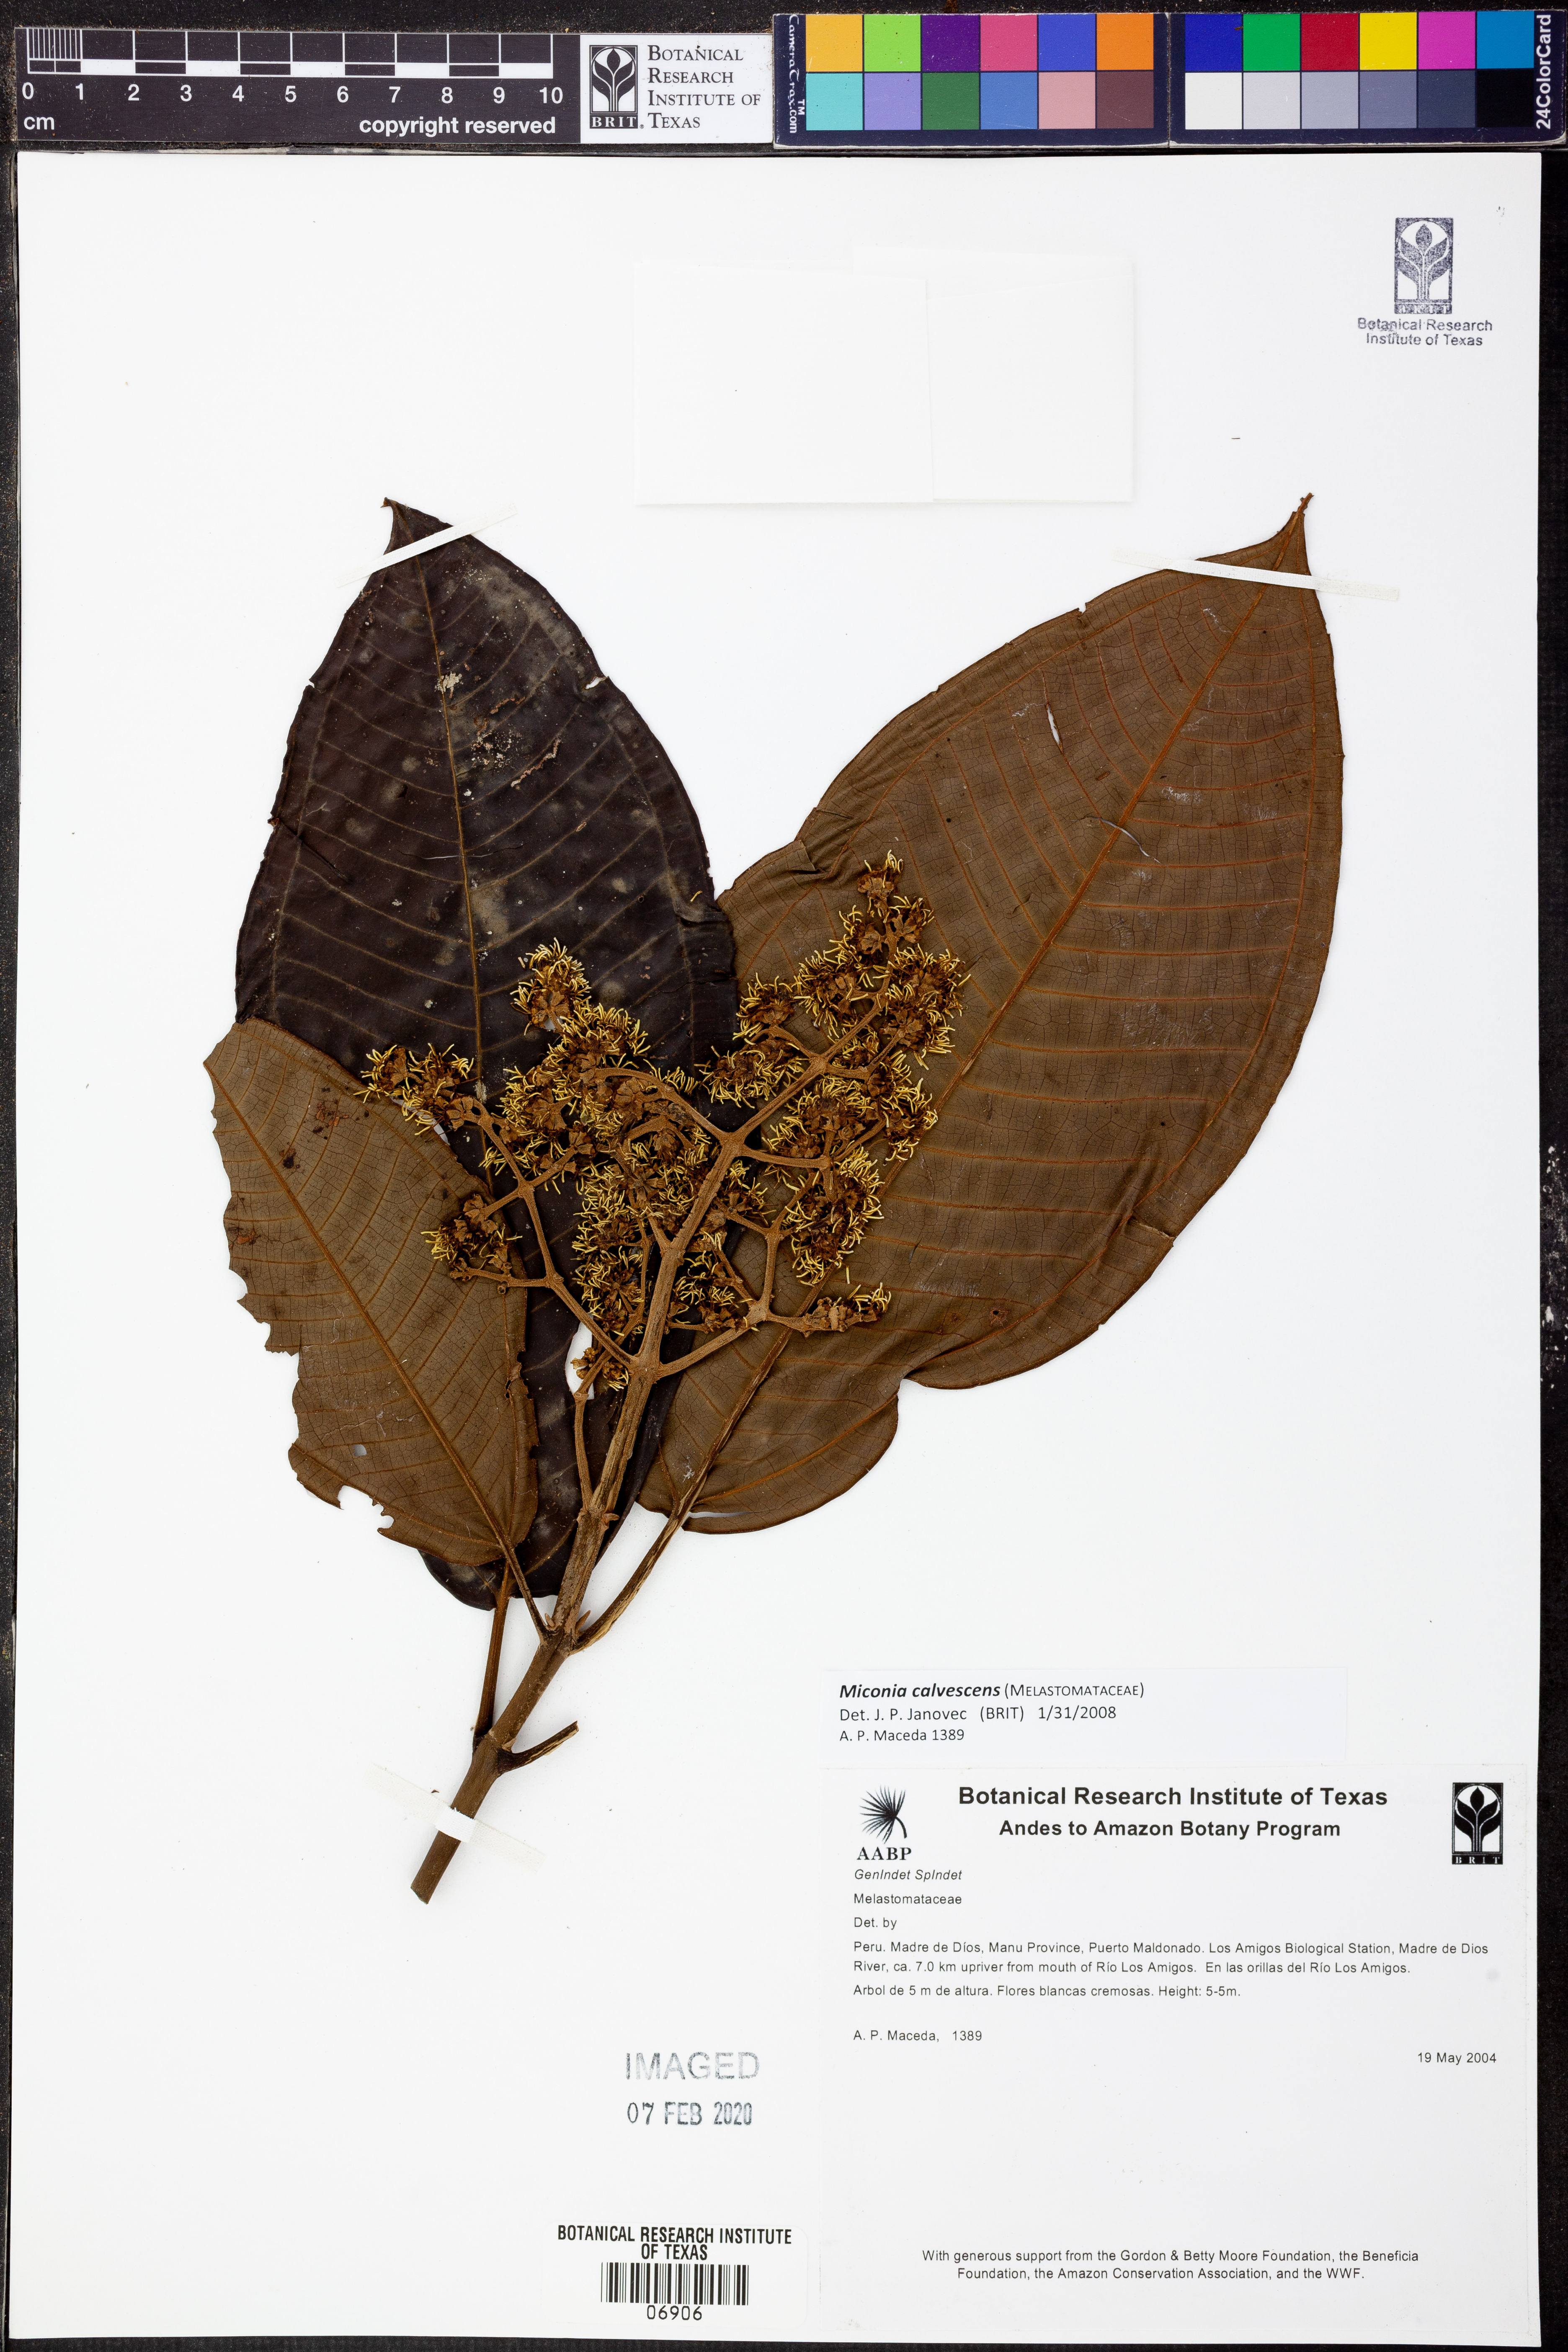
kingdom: Plantae
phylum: Tracheophyta
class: Magnoliopsida
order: Myrtales
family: Melastomataceae
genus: Miconia
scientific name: Miconia calvescens
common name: Purple plague
